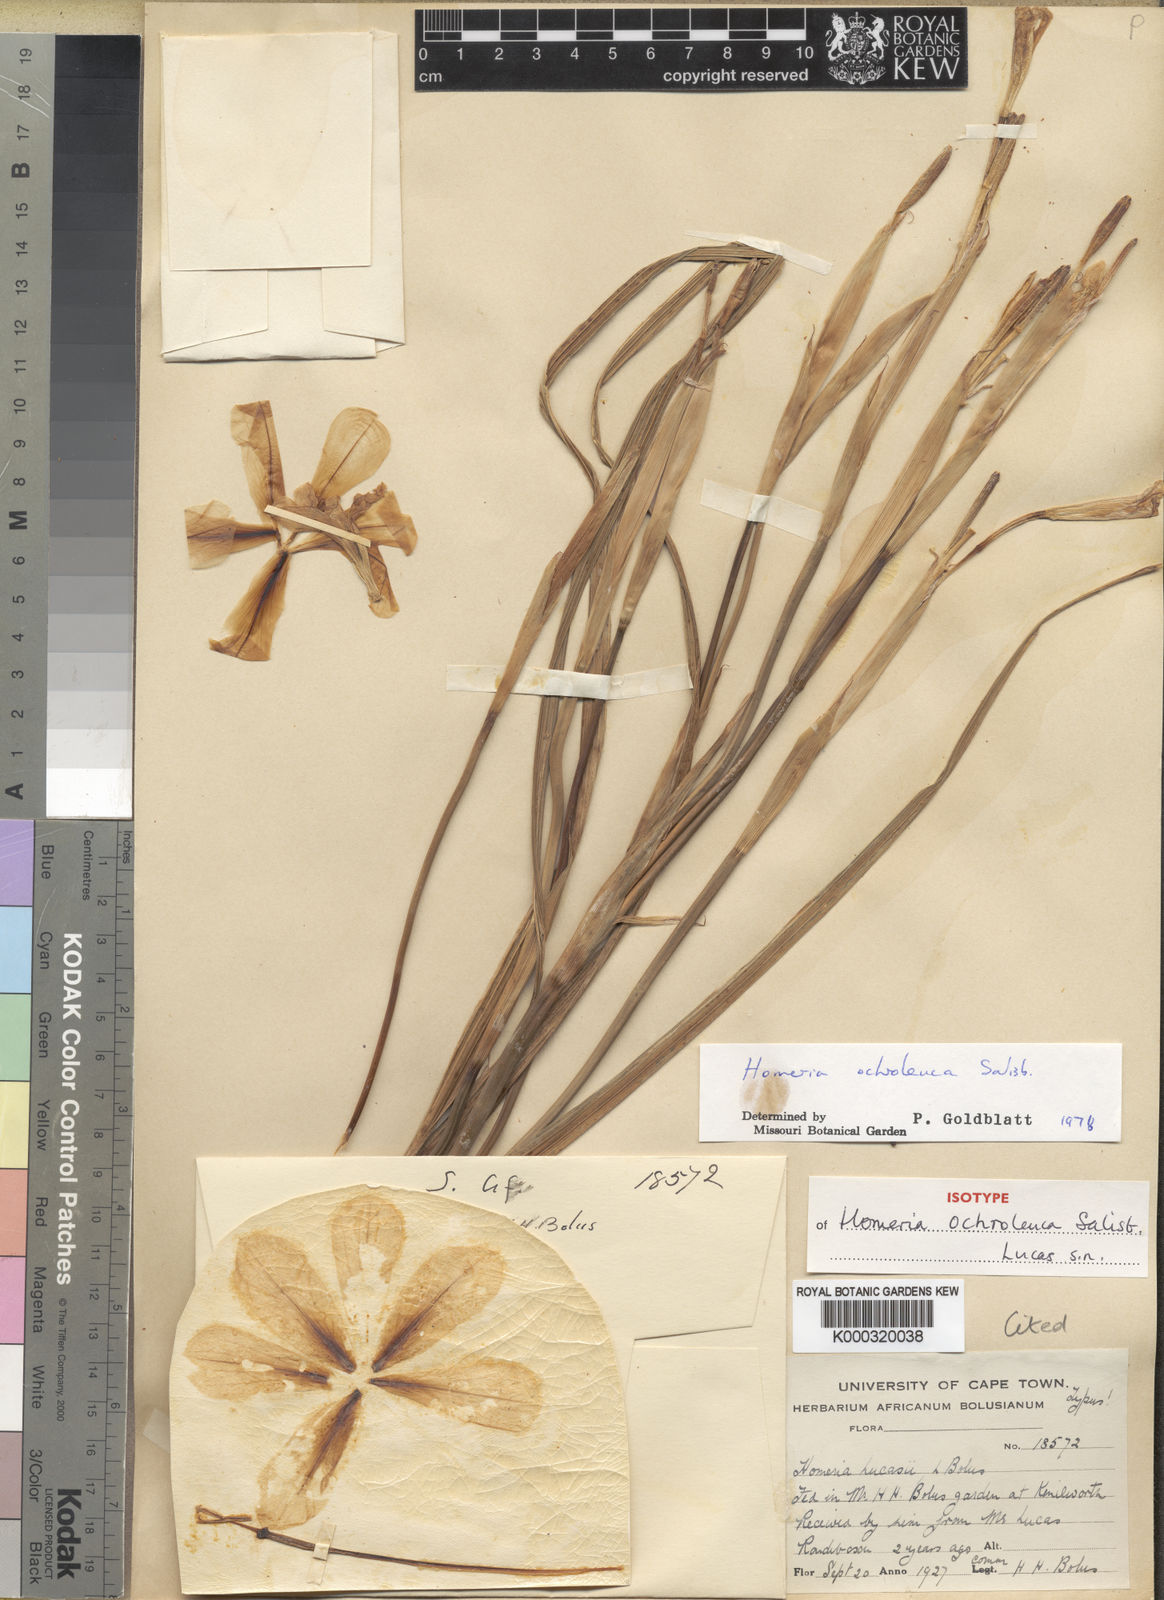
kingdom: Plantae
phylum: Tracheophyta
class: Liliopsida
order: Asparagales
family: Iridaceae
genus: Moraea
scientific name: Moraea ochroleuca
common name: Red tulp
